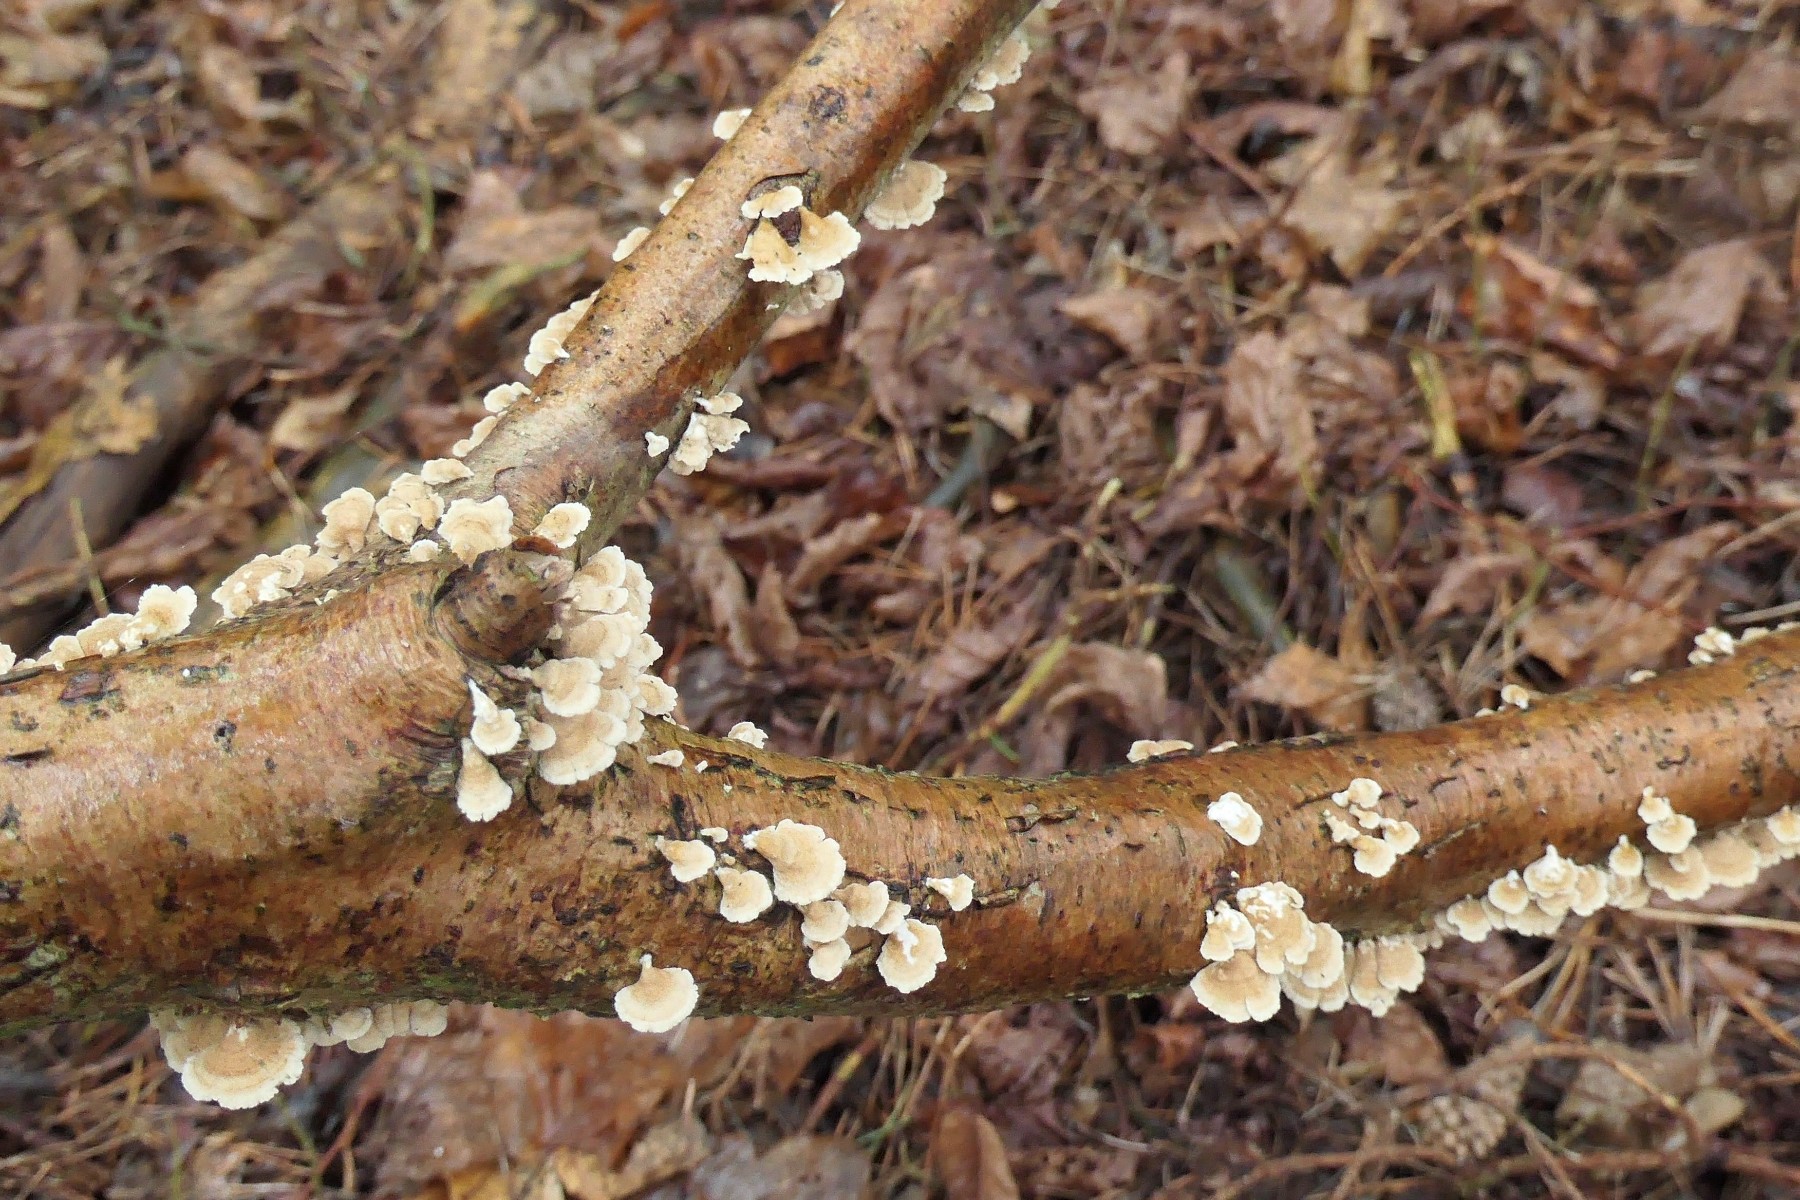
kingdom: Fungi
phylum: Basidiomycota
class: Agaricomycetes
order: Amylocorticiales
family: Amylocorticiaceae
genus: Plicaturopsis
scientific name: Plicaturopsis crispa
